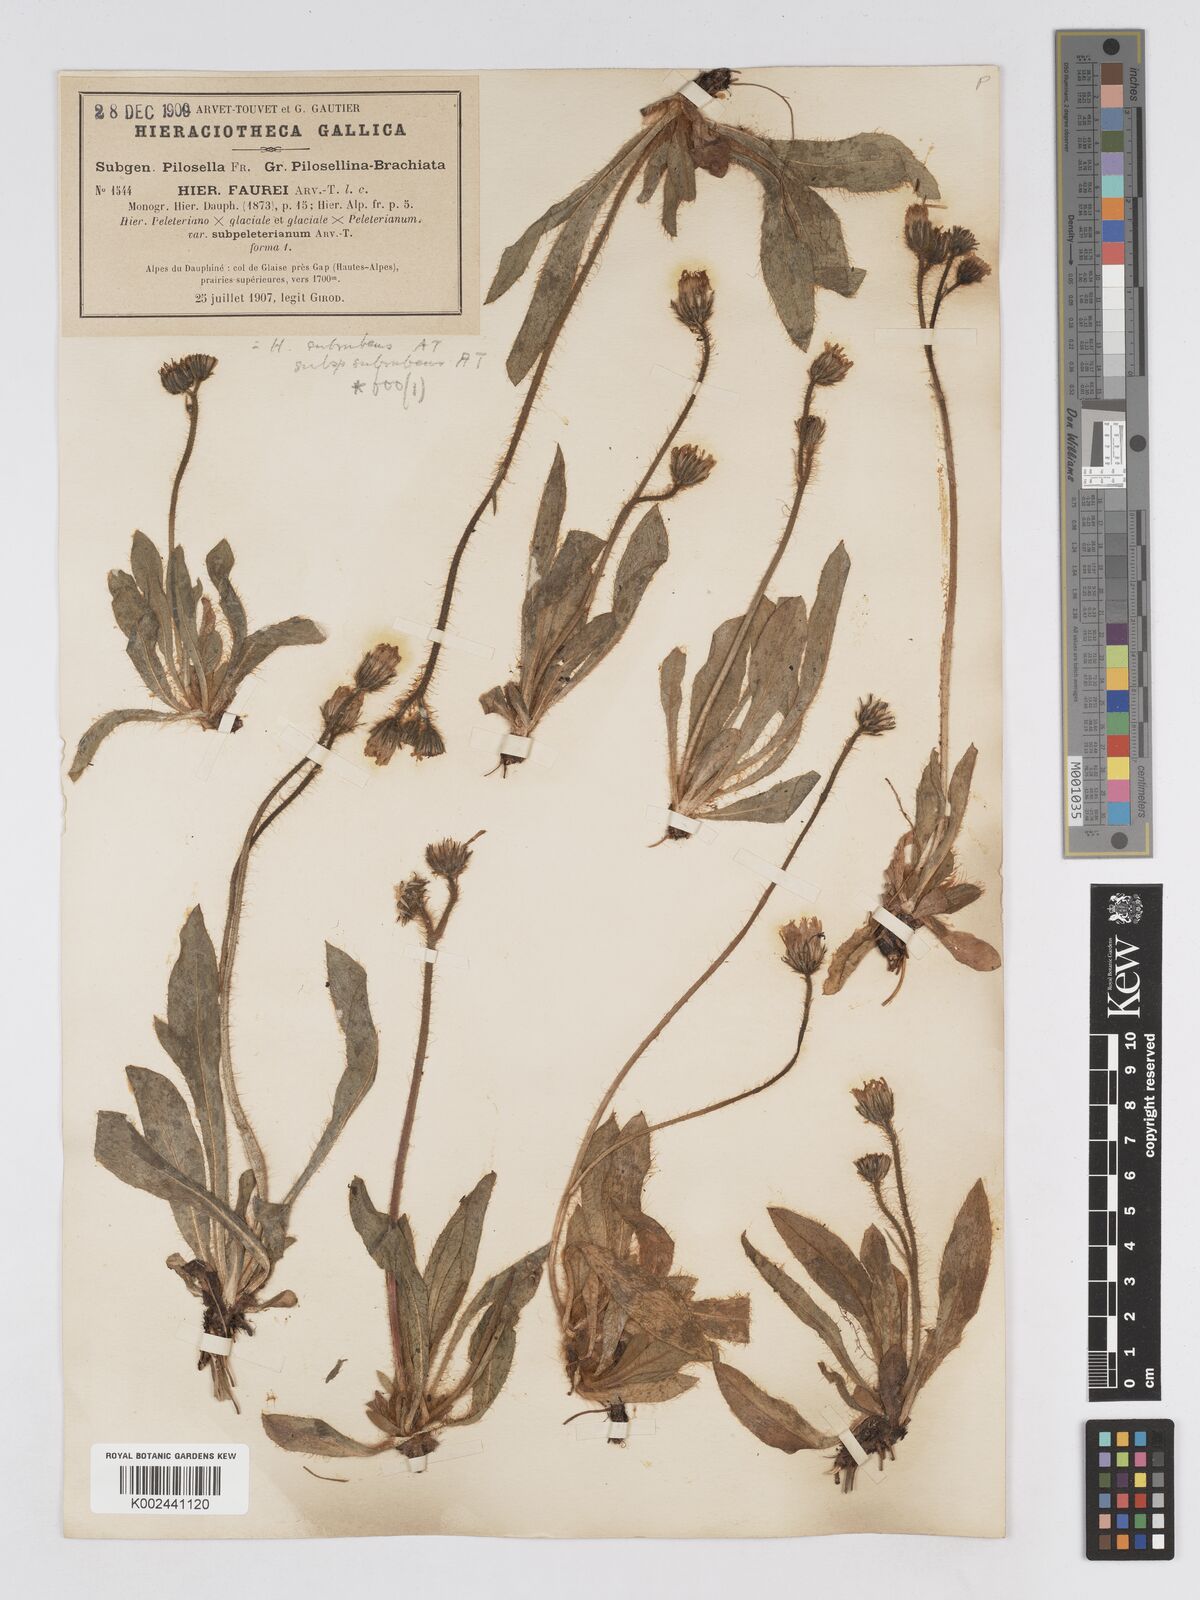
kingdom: Plantae
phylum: Tracheophyta
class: Magnoliopsida
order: Asterales
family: Asteraceae
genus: Pilosella
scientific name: Pilosella subrubens
